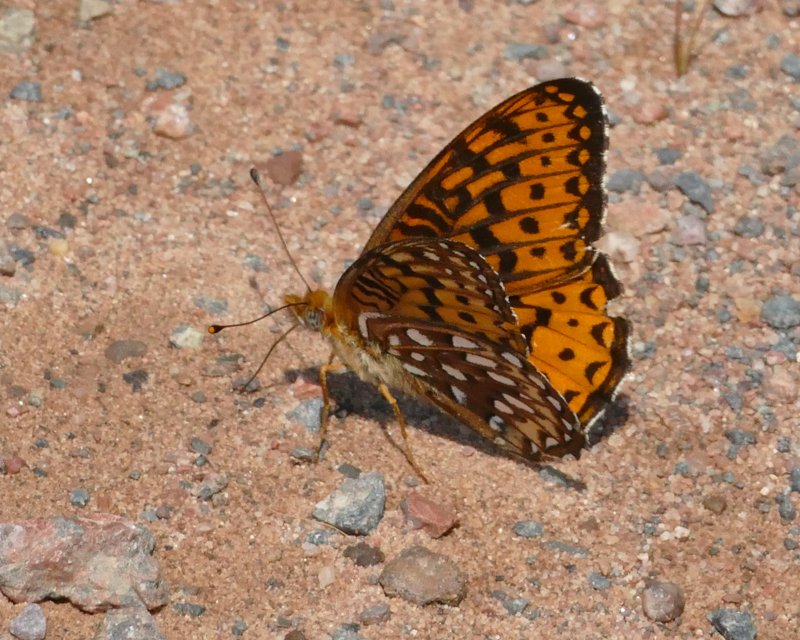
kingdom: Animalia
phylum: Arthropoda
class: Insecta
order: Lepidoptera
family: Nymphalidae
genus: Speyeria
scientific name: Speyeria atlantis
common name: Atlantis Fritillary
